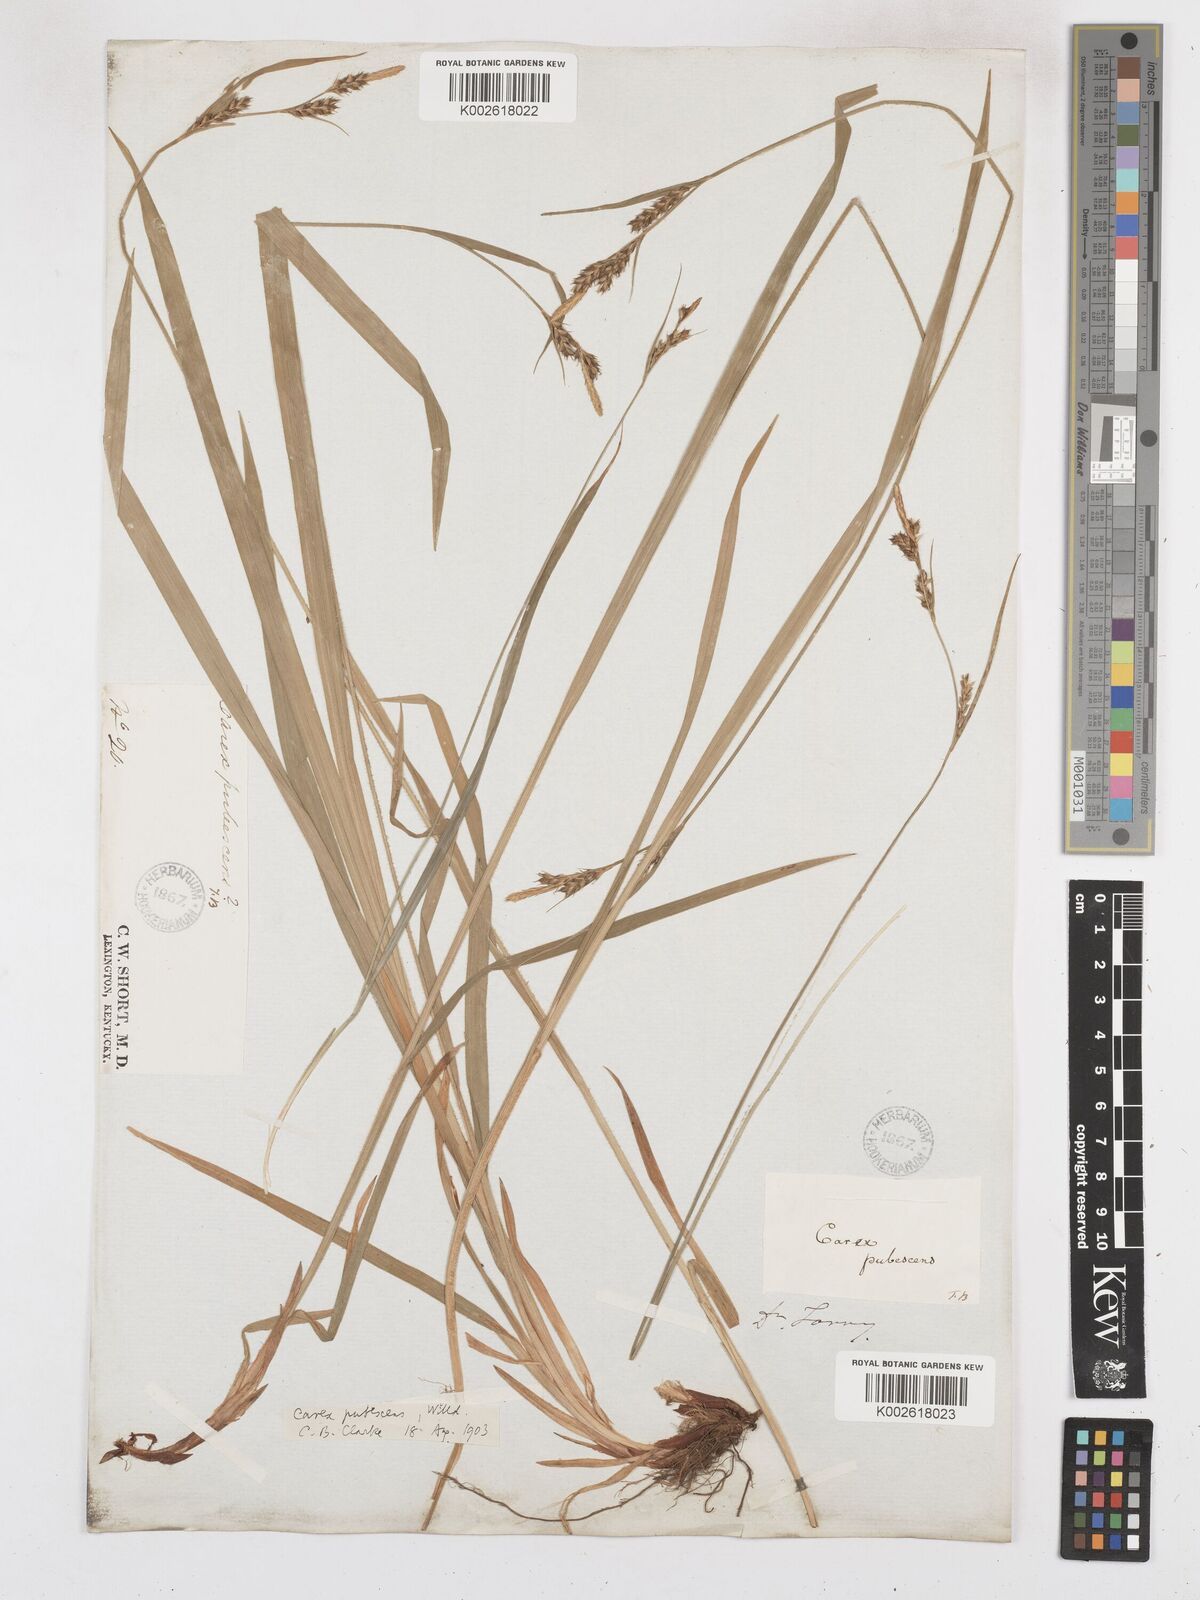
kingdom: Plantae
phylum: Tracheophyta
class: Liliopsida
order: Poales
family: Cyperaceae
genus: Carex
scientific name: Carex hirtifolia
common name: Hairy sedge
